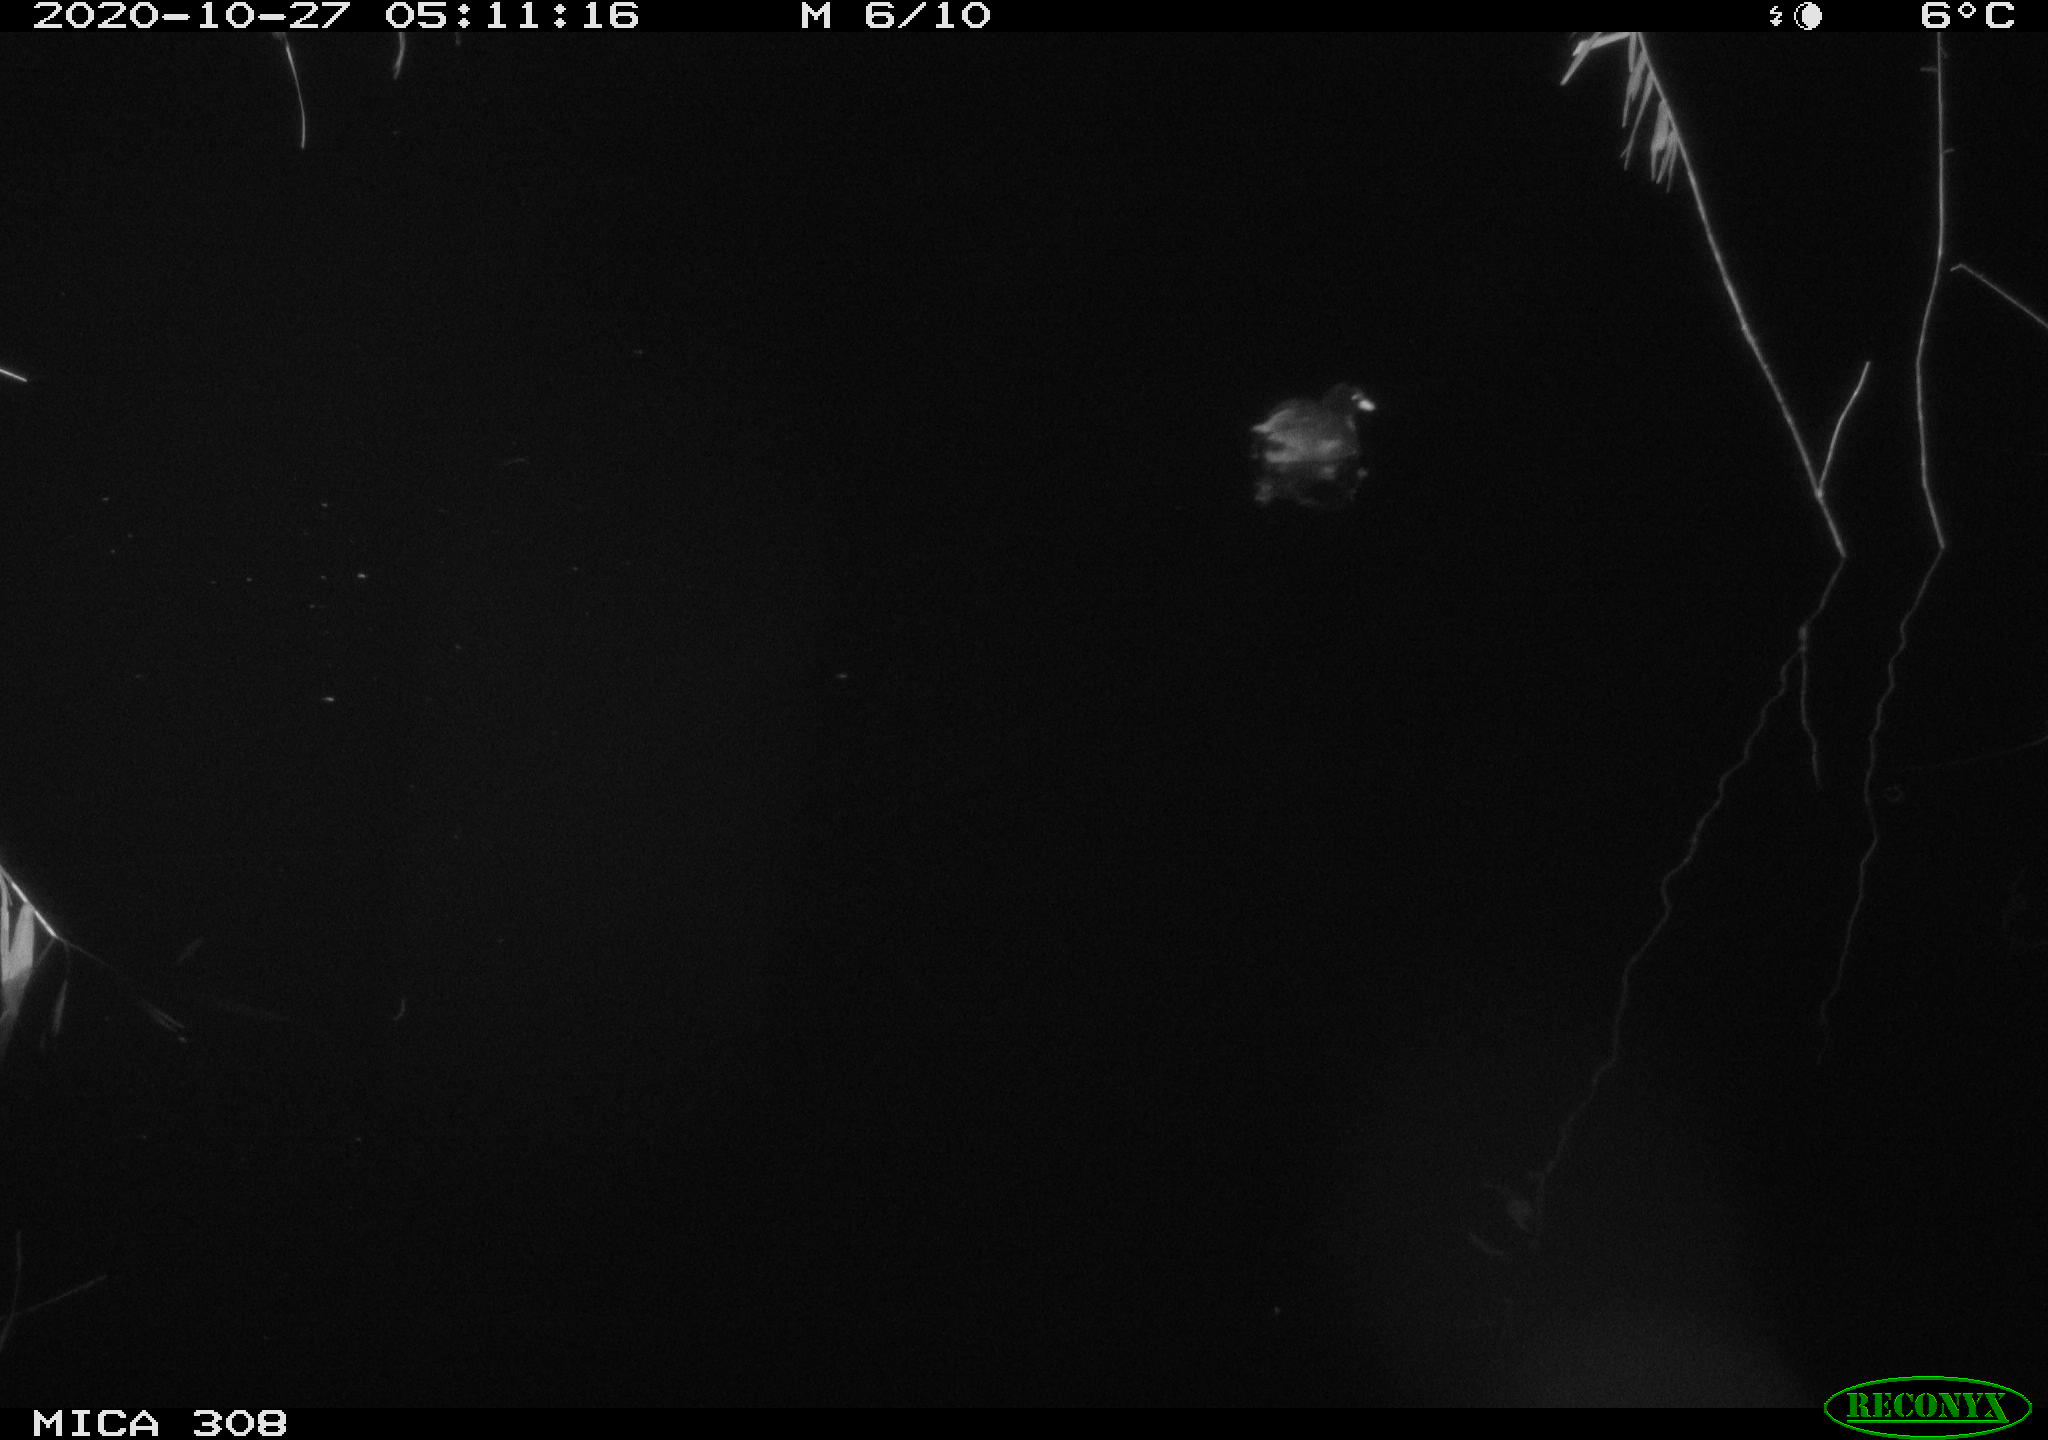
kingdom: Animalia
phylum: Chordata
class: Aves
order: Gruiformes
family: Rallidae
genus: Gallinula
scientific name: Gallinula chloropus
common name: Common moorhen
